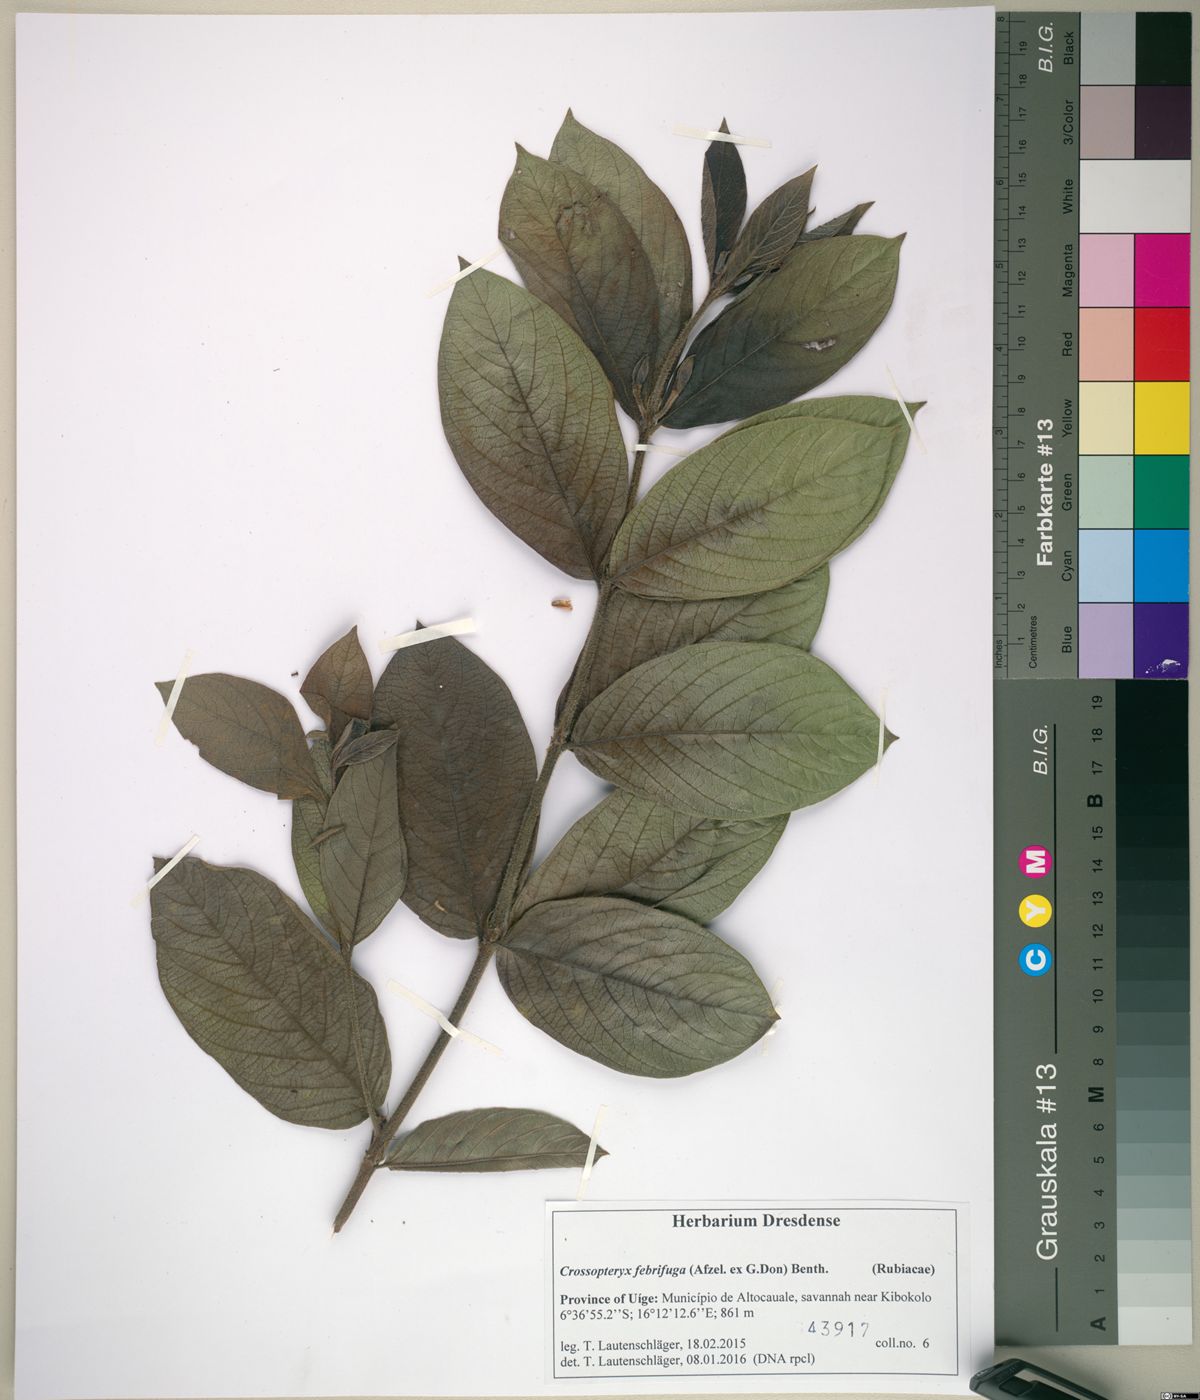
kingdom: Plantae
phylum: Tracheophyta
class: Magnoliopsida
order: Gentianales
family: Rubiaceae
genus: Crossopteryx
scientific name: Crossopteryx febrifuga
